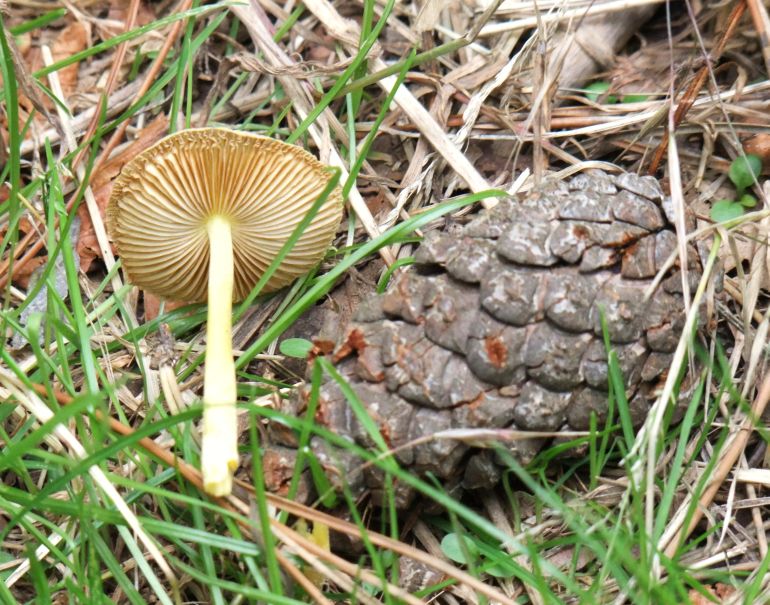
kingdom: Fungi
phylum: Basidiomycota
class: Agaricomycetes
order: Agaricales
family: Bolbitiaceae
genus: Bolbitius
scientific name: Bolbitius titubans
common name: almindelig gulhat
